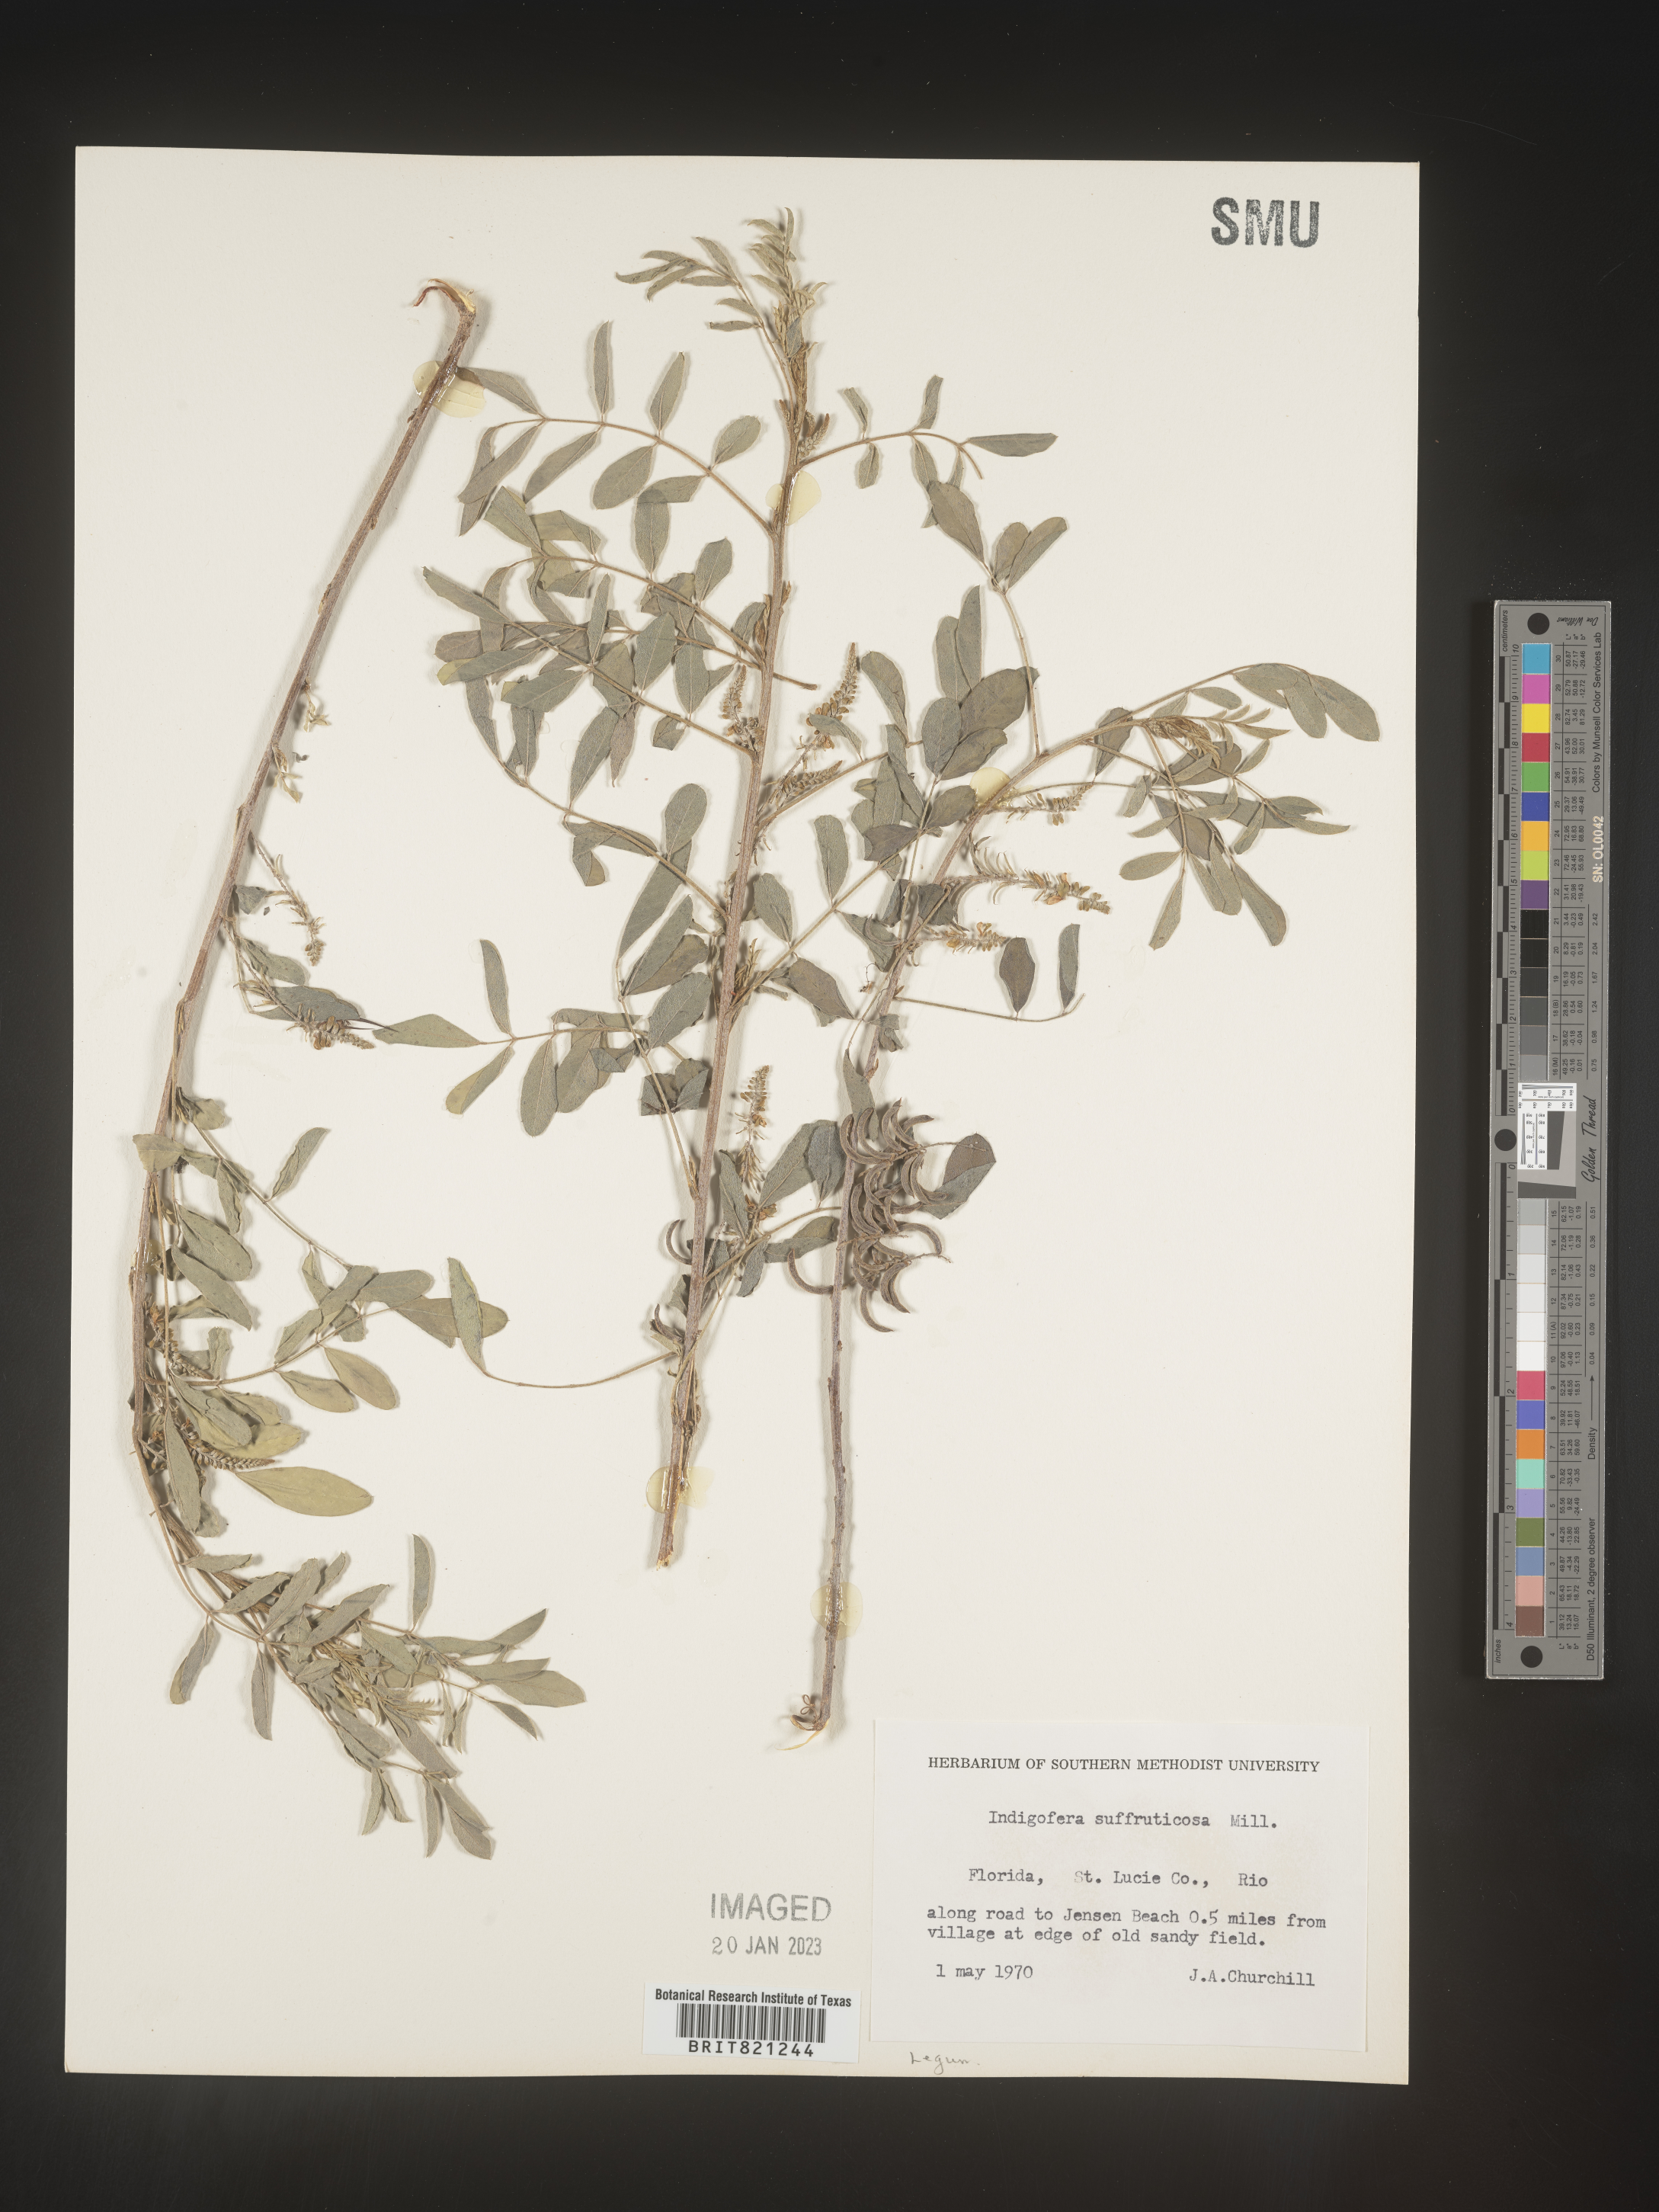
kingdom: Plantae
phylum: Tracheophyta
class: Magnoliopsida
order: Fabales
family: Fabaceae
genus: Indigofera
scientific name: Indigofera
